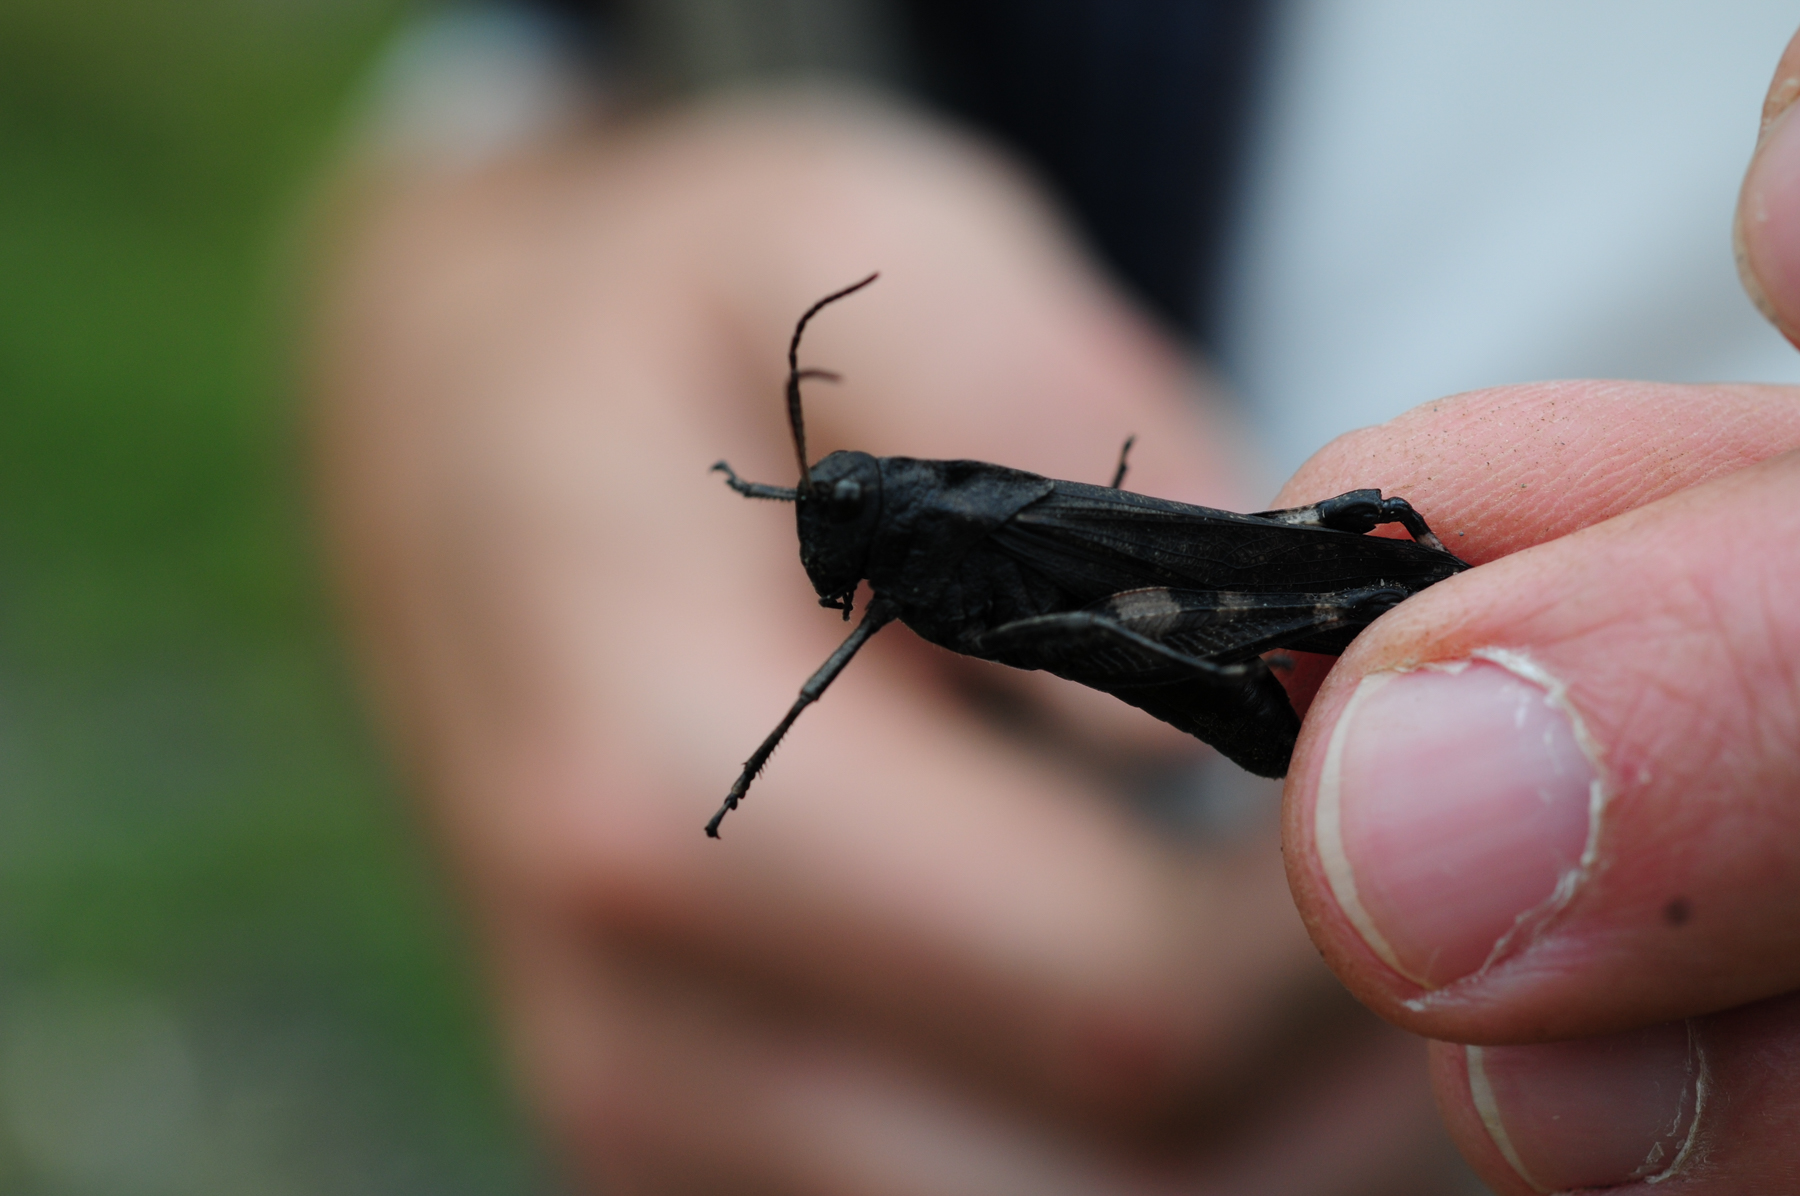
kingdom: Animalia
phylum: Arthropoda
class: Insecta
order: Orthoptera
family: Acrididae
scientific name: Acrididae
